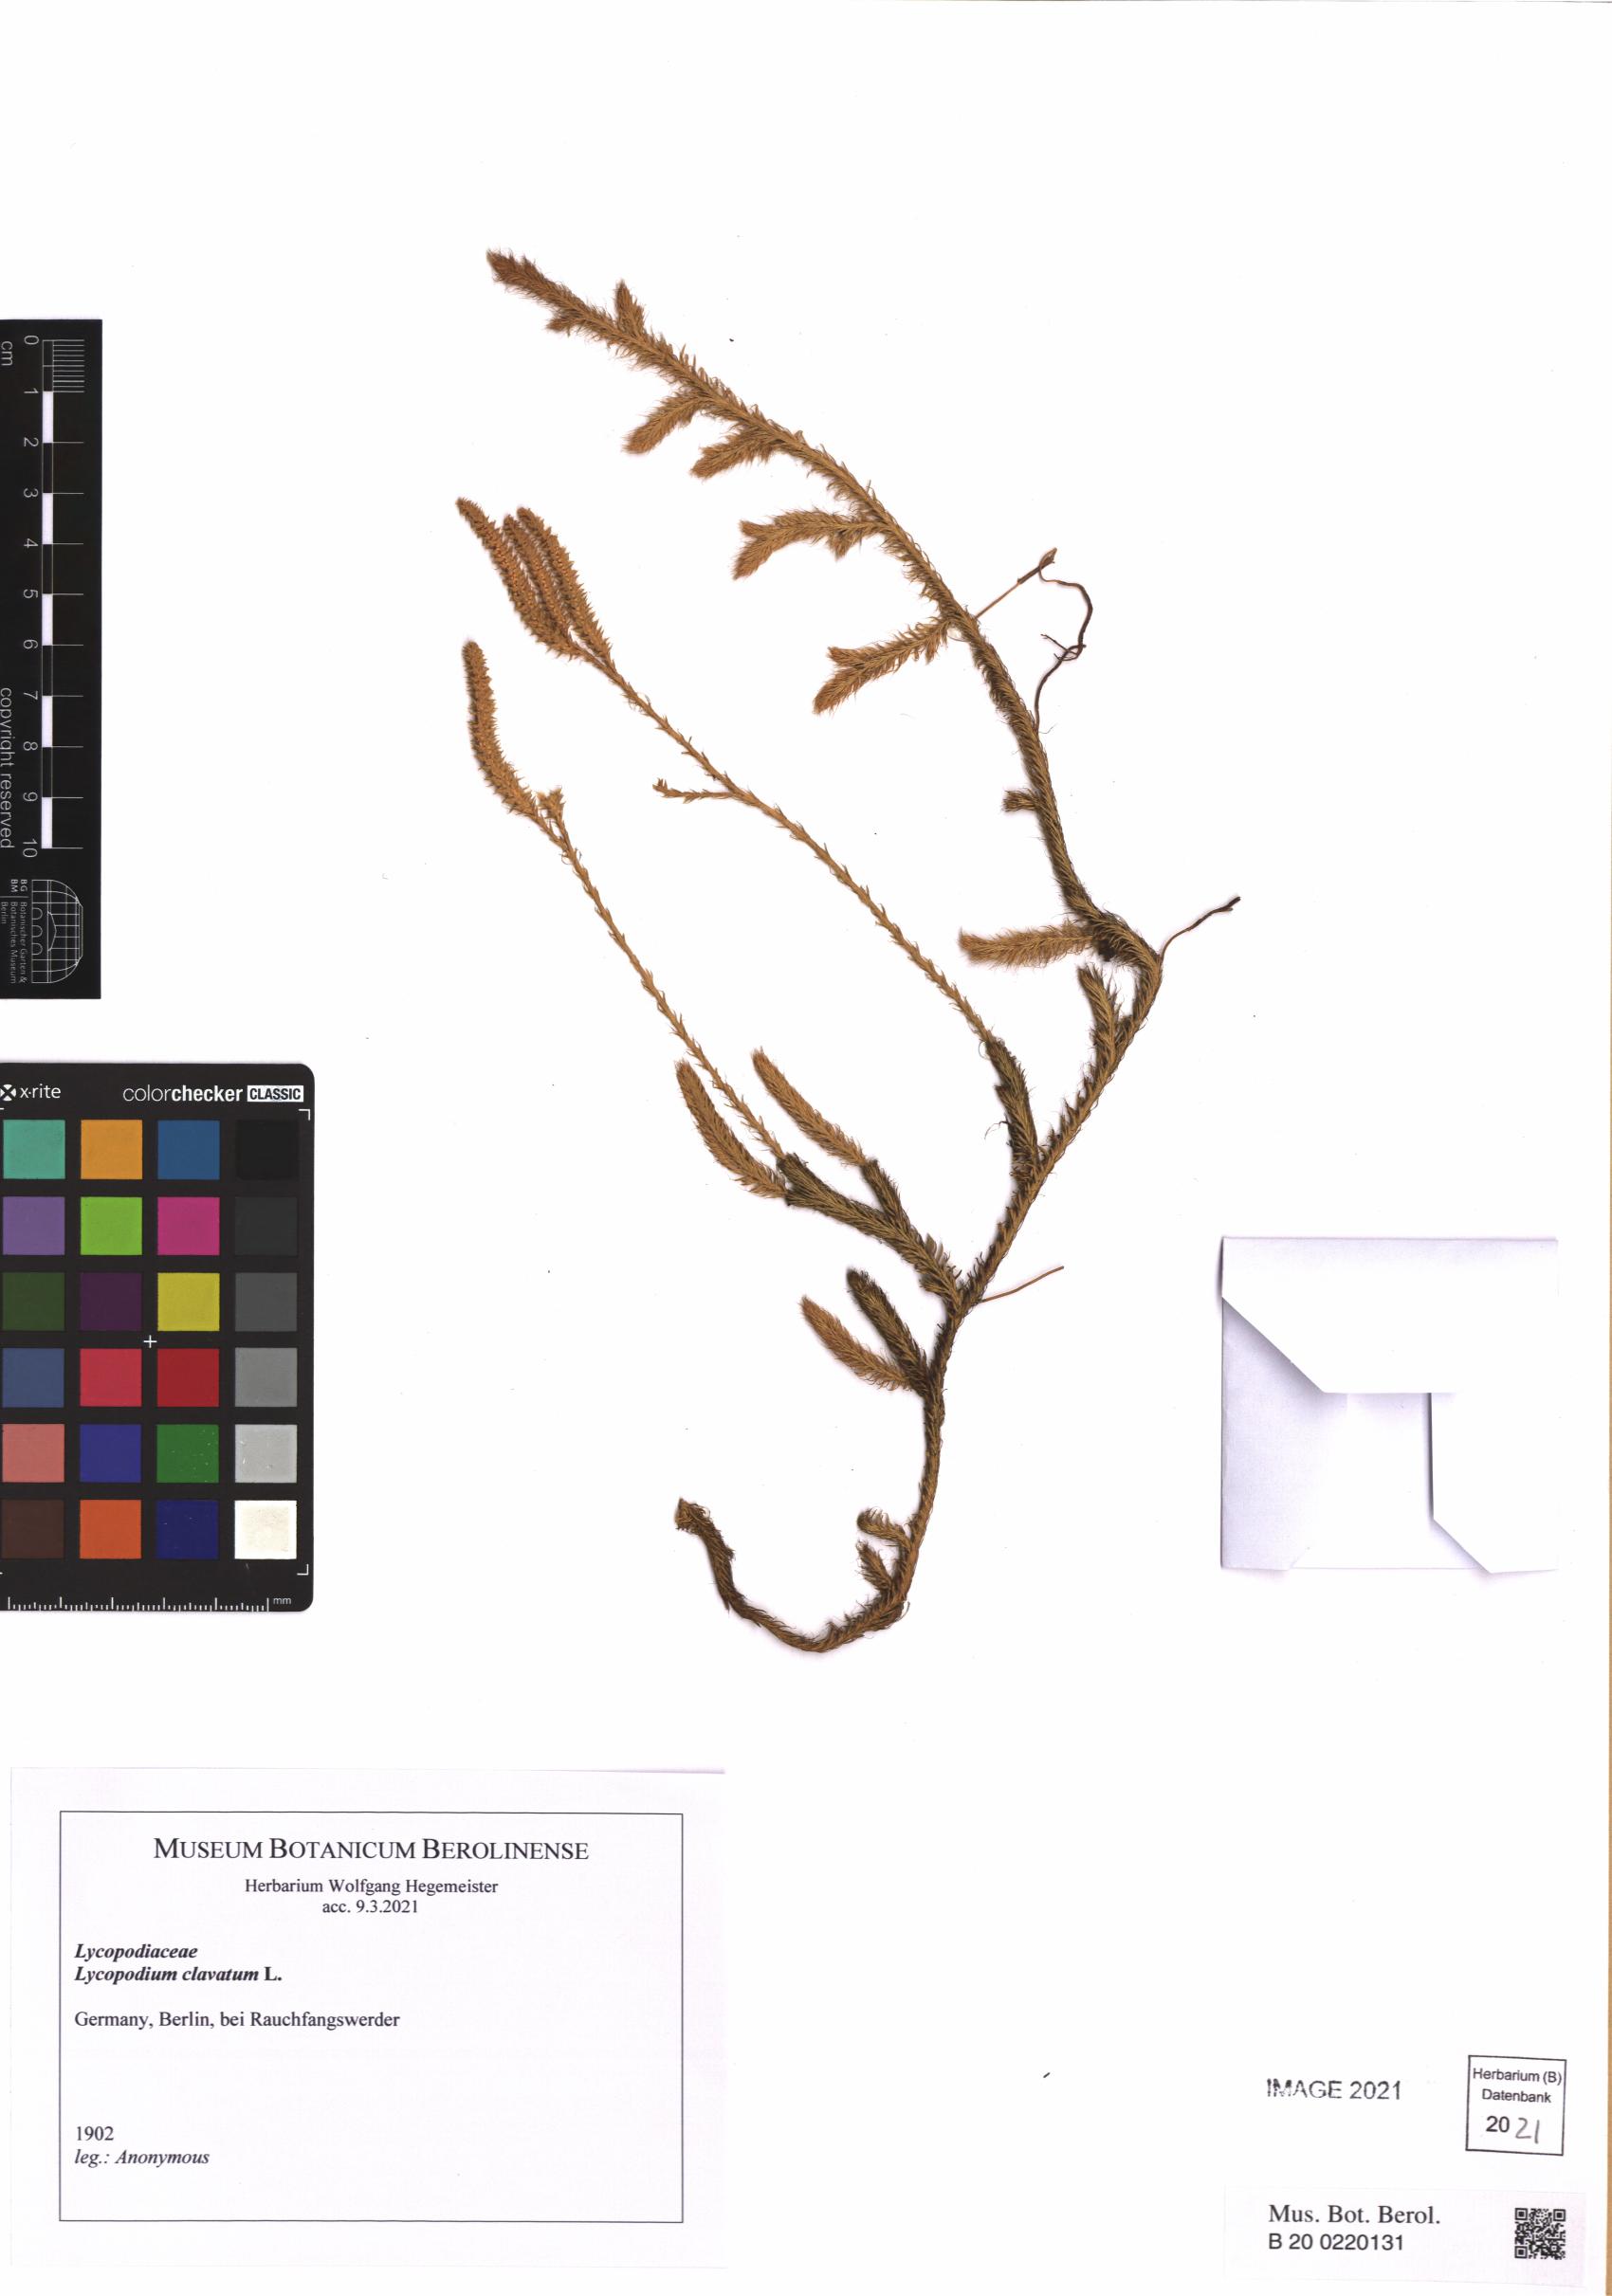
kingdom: Plantae
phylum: Tracheophyta
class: Lycopodiopsida
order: Lycopodiales
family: Lycopodiaceae
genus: Lycopodium
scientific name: Lycopodium clavatum
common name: Stag's-horn clubmoss
